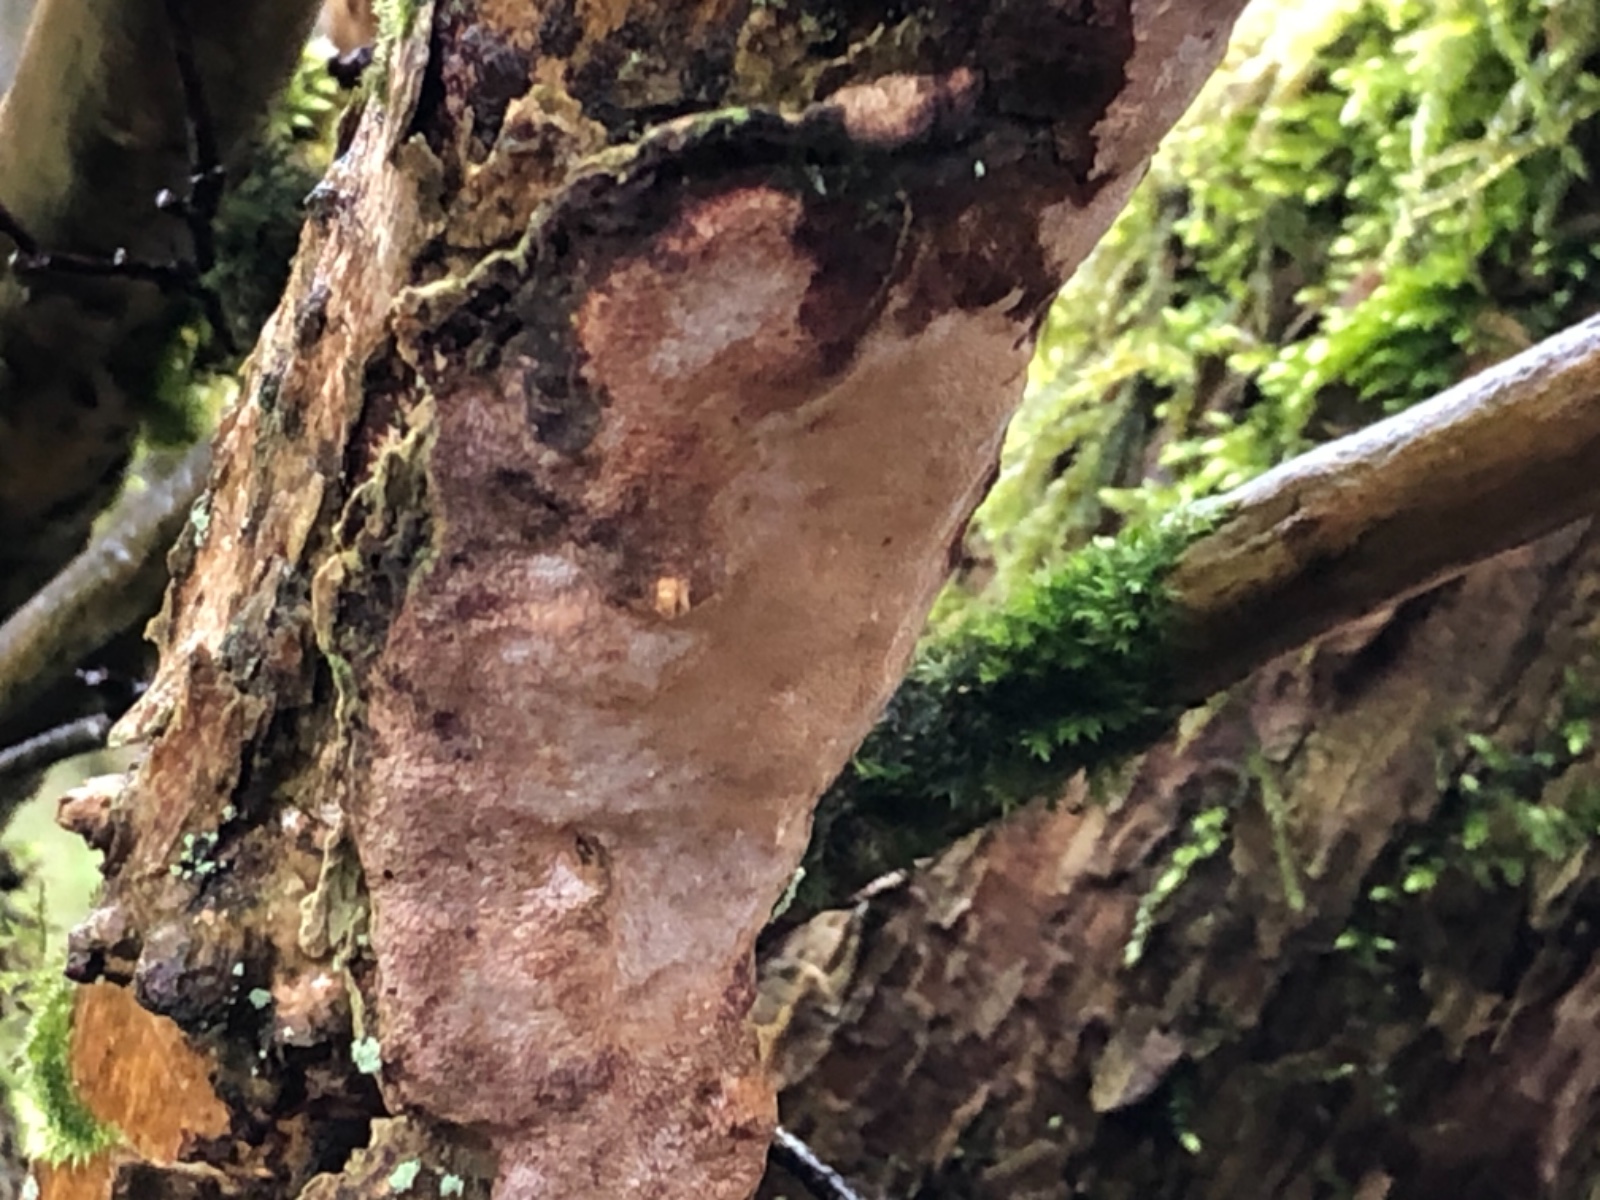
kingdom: Fungi
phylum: Basidiomycota
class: Agaricomycetes
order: Hymenochaetales
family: Hymenochaetaceae
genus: Fuscoporia
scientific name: Fuscoporia ferrea
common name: skorpe-ildporesvamp
